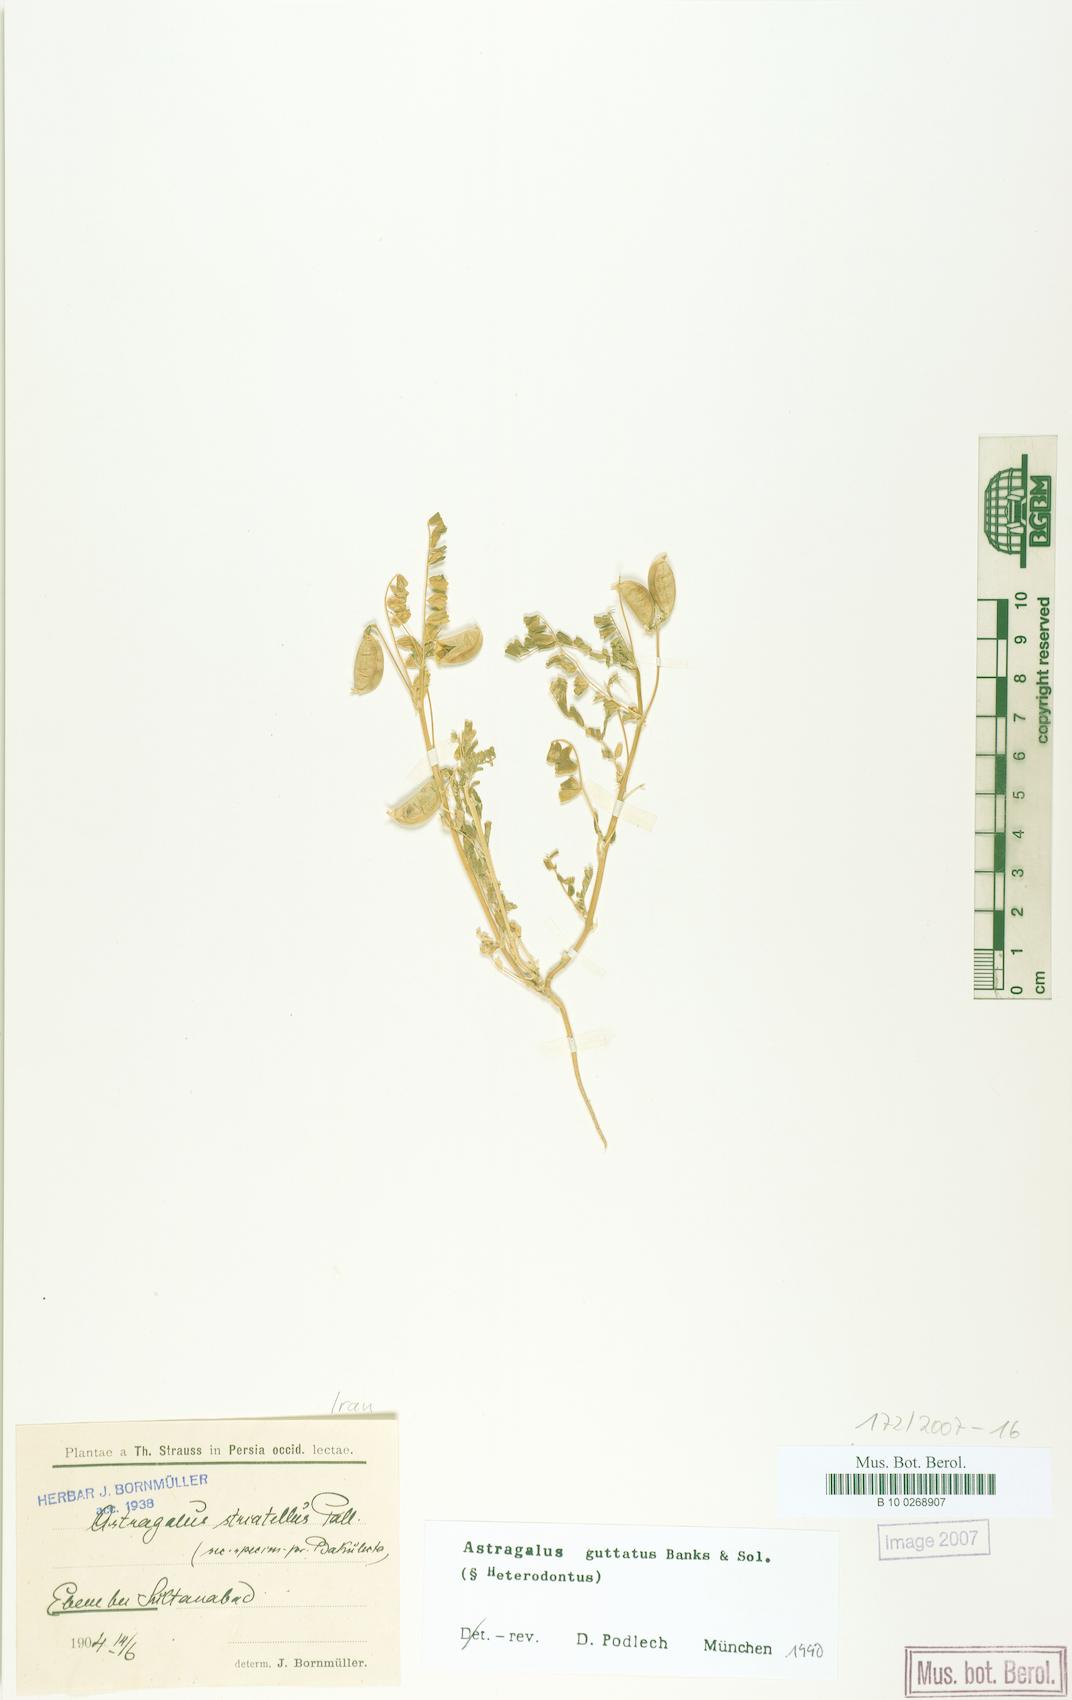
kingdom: Plantae
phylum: Tracheophyta
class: Magnoliopsida
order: Fabales
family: Fabaceae
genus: Astragalus
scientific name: Astragalus guttatus
